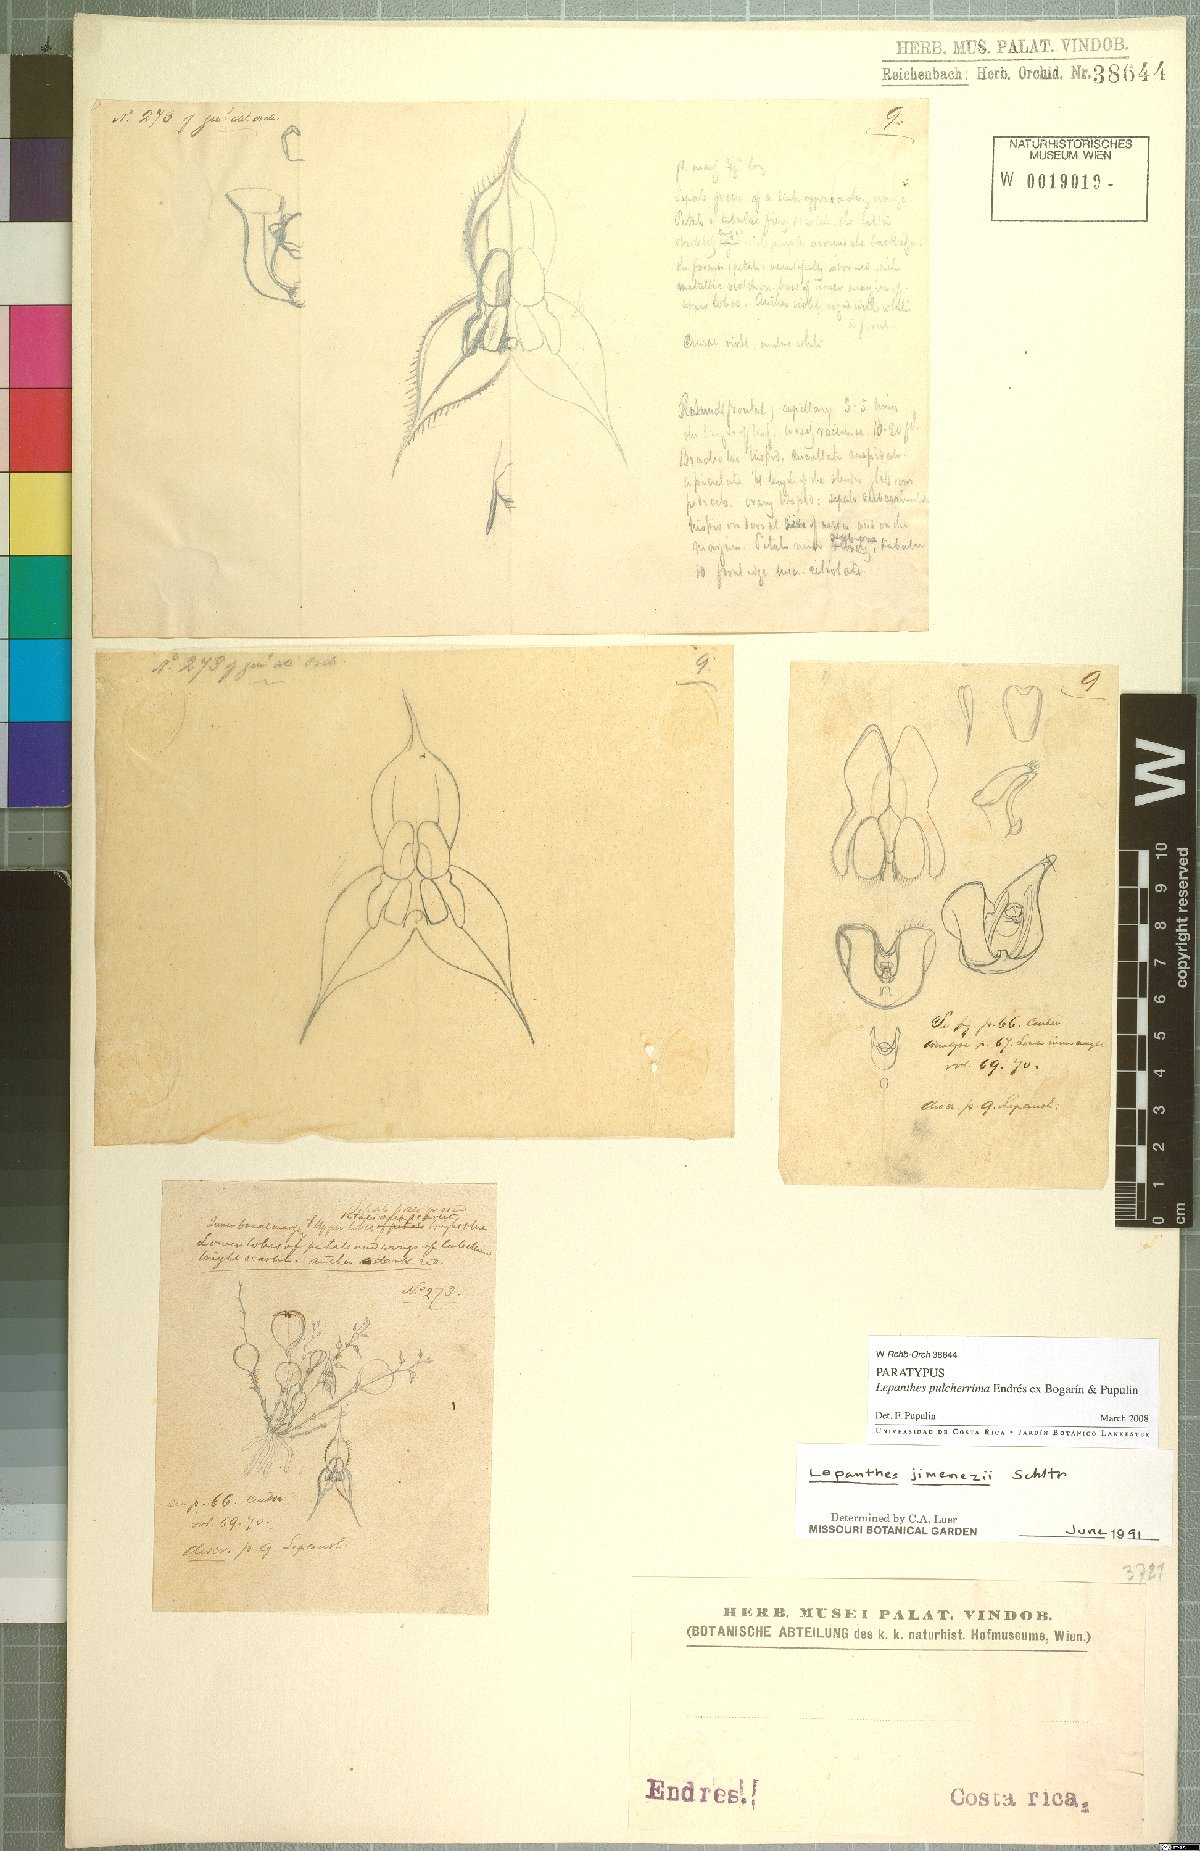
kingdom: Plantae
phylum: Tracheophyta
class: Liliopsida
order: Asparagales
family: Orchidaceae
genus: Lepanthes
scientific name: Lepanthes pulcherrima
